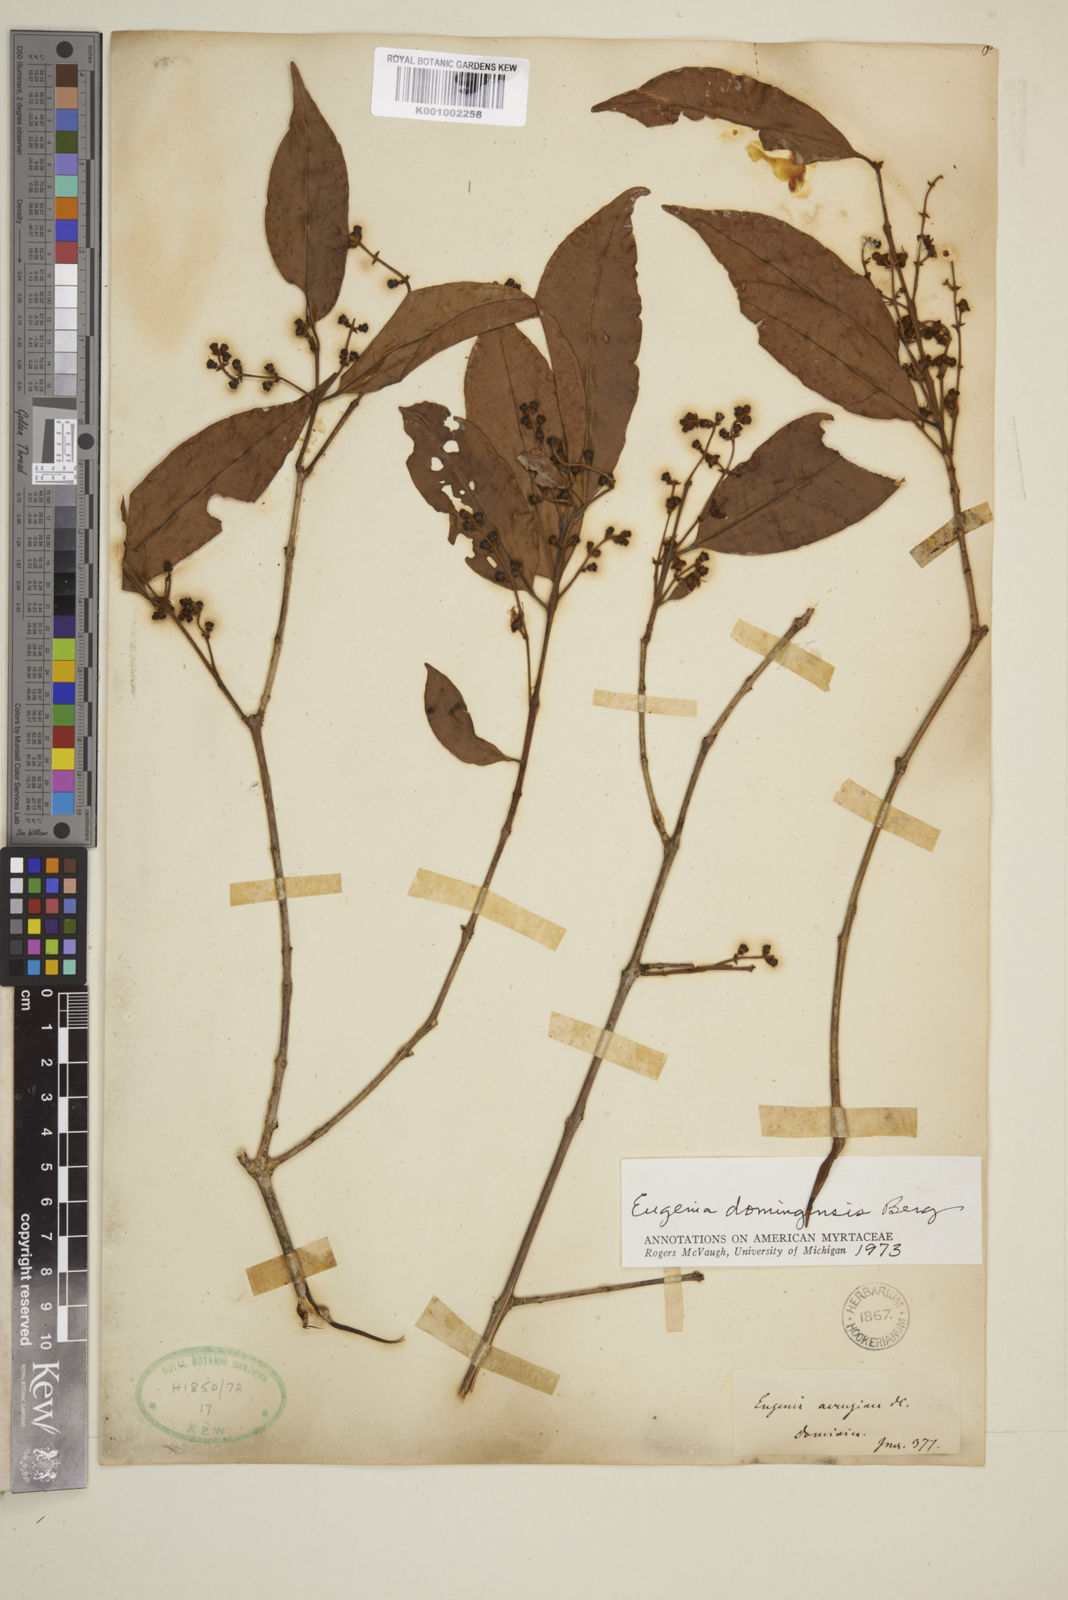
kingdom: Plantae
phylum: Tracheophyta
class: Magnoliopsida
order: Myrtales
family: Myrtaceae
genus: Eugenia
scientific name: Eugenia domingensis
